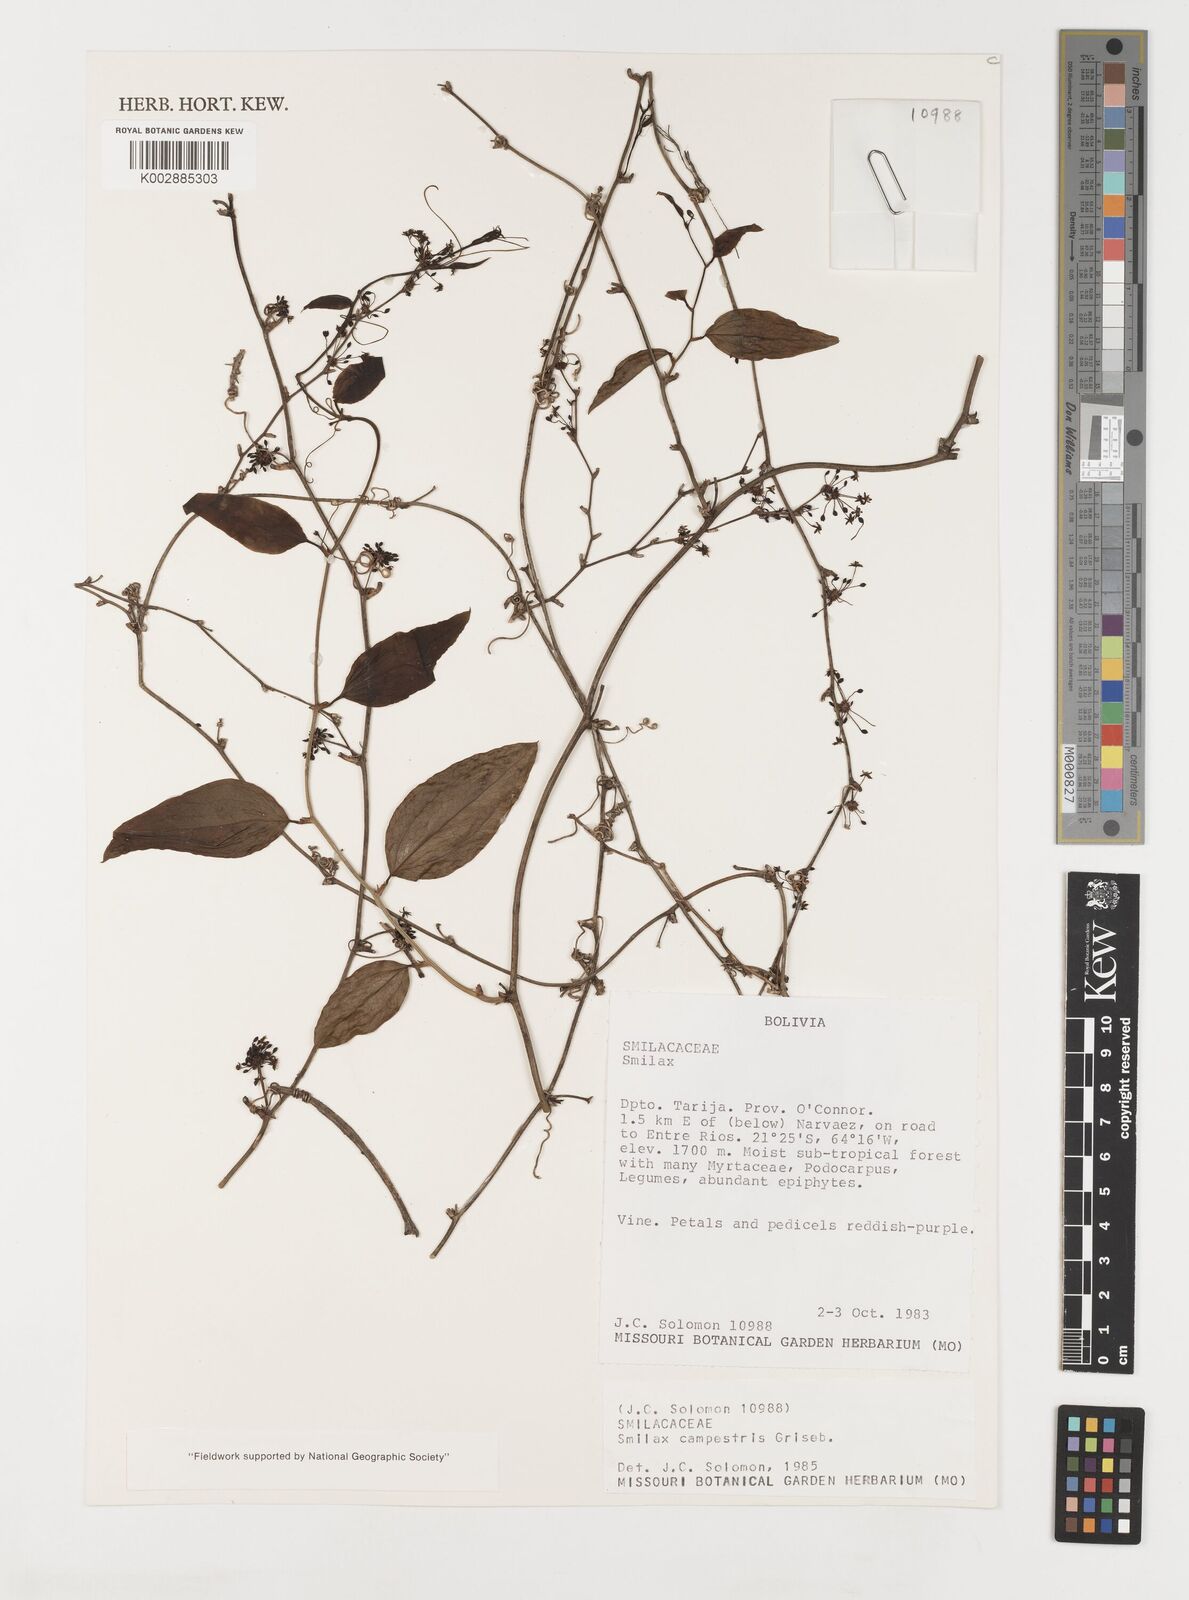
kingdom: Plantae
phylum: Tracheophyta
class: Liliopsida
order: Liliales
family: Smilacaceae
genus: Smilax
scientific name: Smilax campestris
